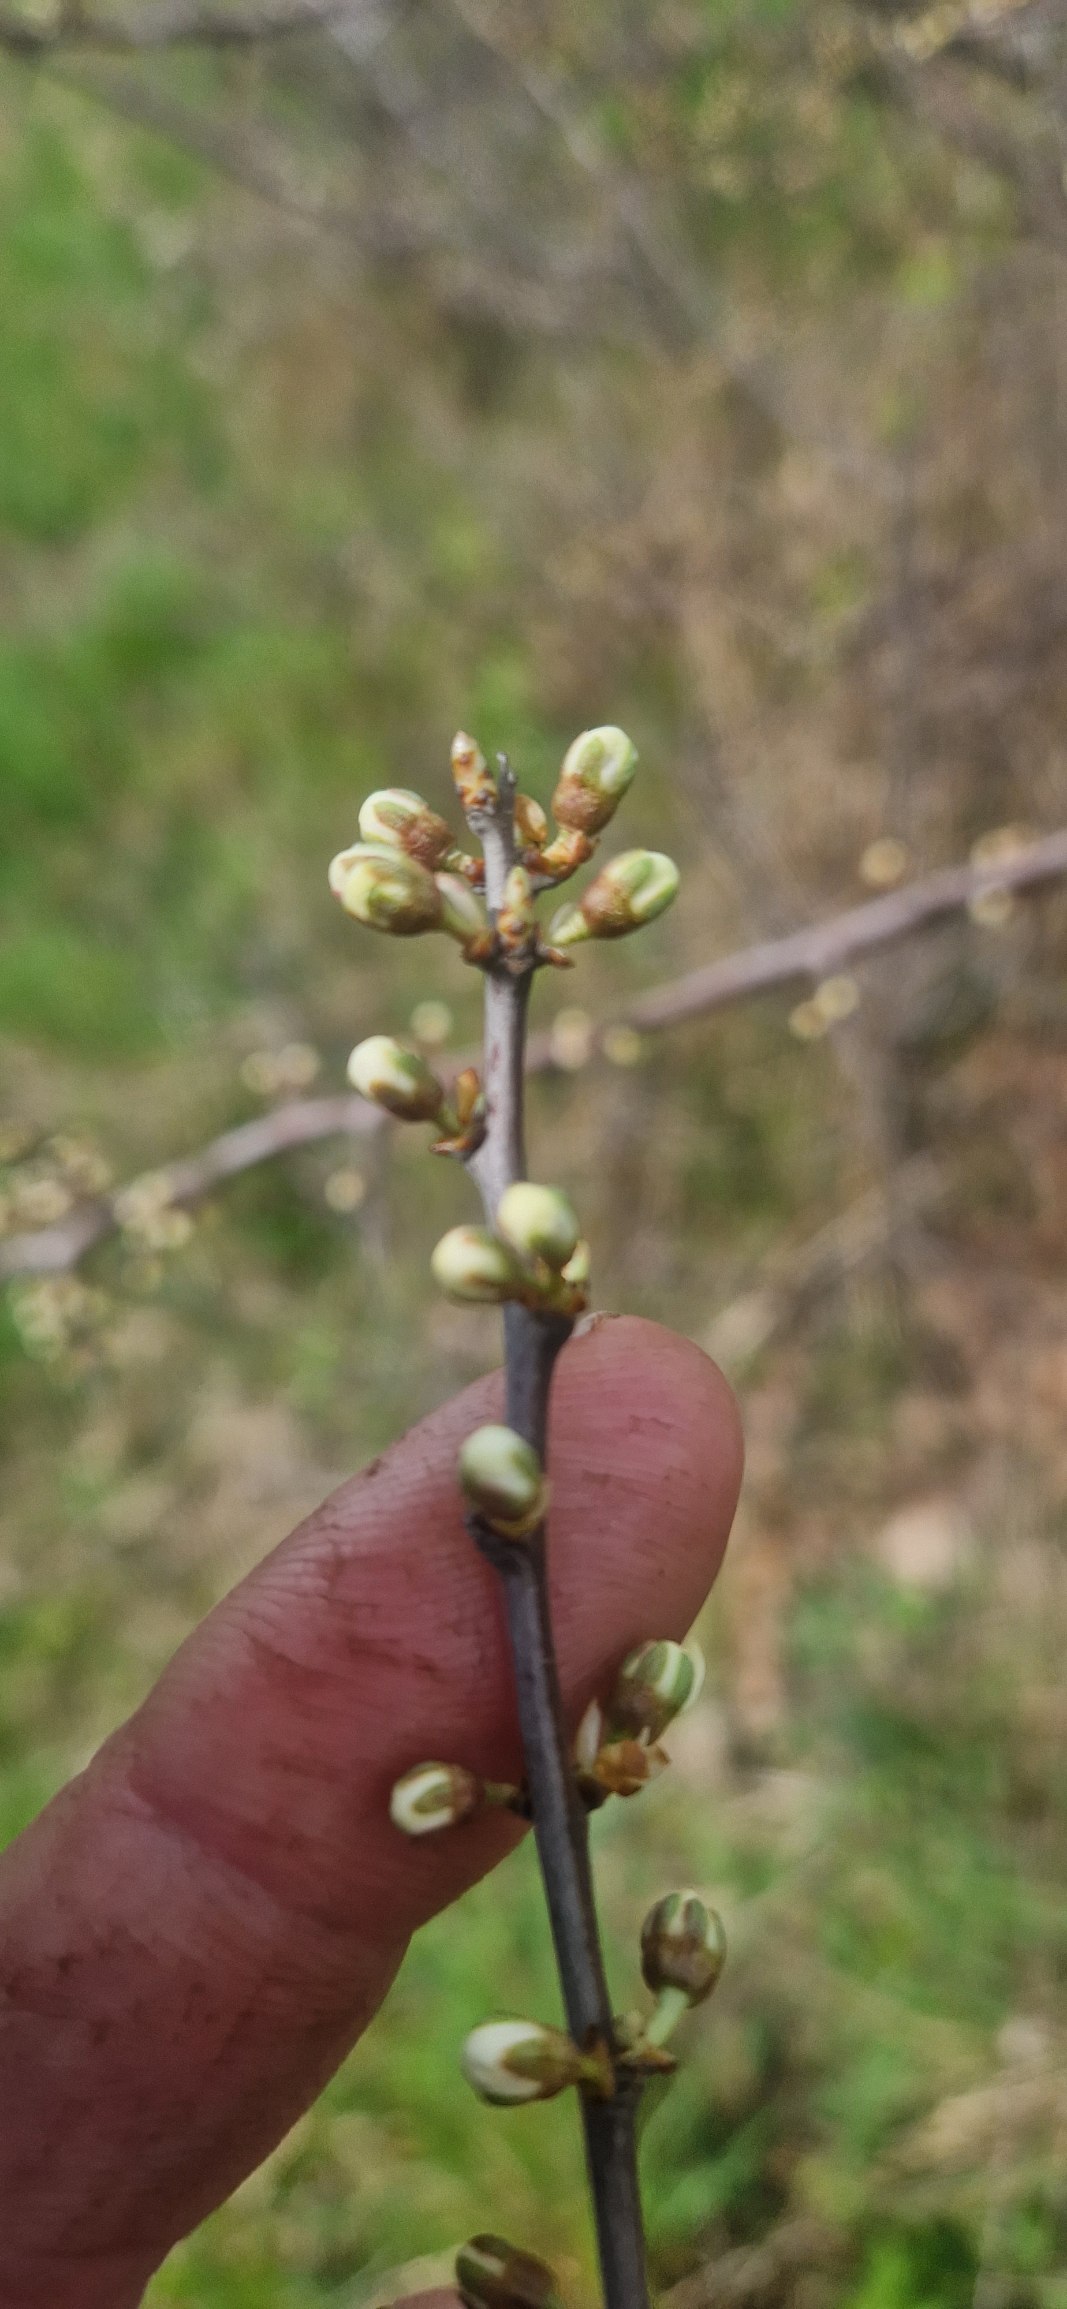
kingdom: Plantae
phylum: Tracheophyta
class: Magnoliopsida
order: Rosales
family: Rosaceae
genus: Prunus
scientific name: Prunus spinosa
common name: Slåen
